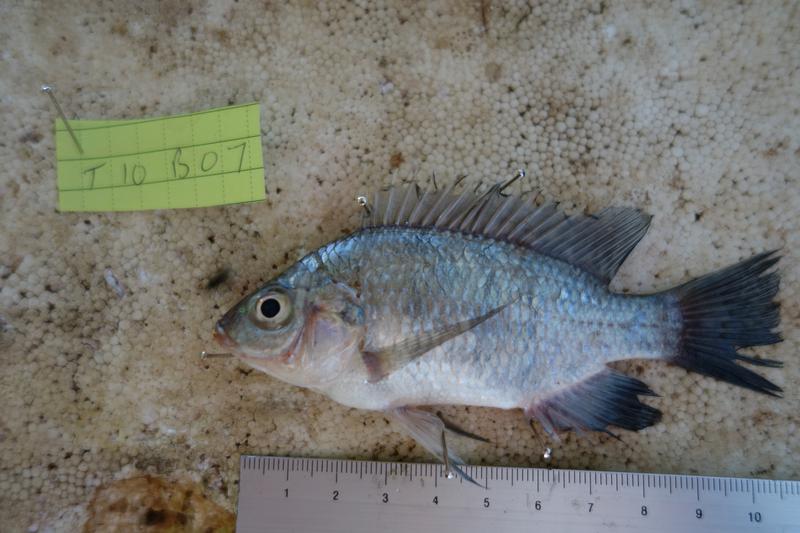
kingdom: Animalia
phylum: Chordata
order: Perciformes
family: Cichlidae
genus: Oreochromis
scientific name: Oreochromis rukwaensis
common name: Lake rukwa tilapia
